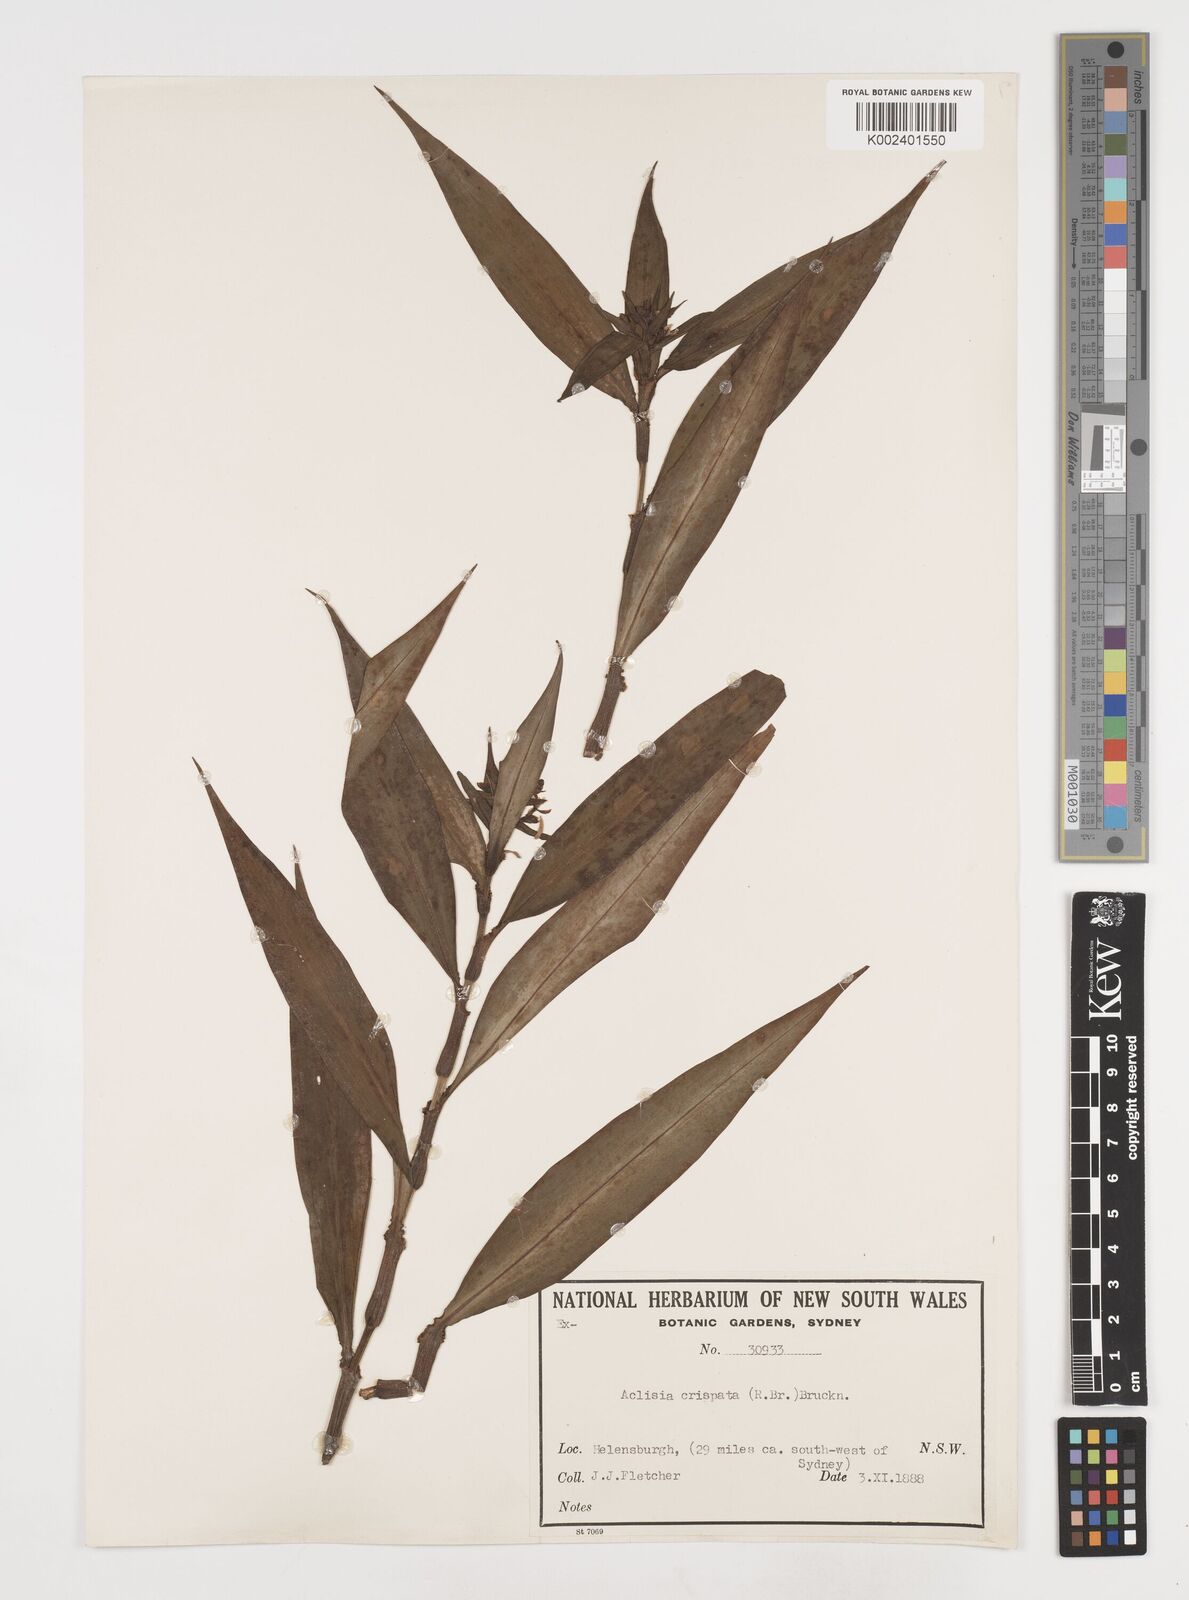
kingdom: Plantae
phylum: Tracheophyta
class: Liliopsida
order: Commelinales
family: Commelinaceae
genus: Pollia
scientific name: Pollia crispata
